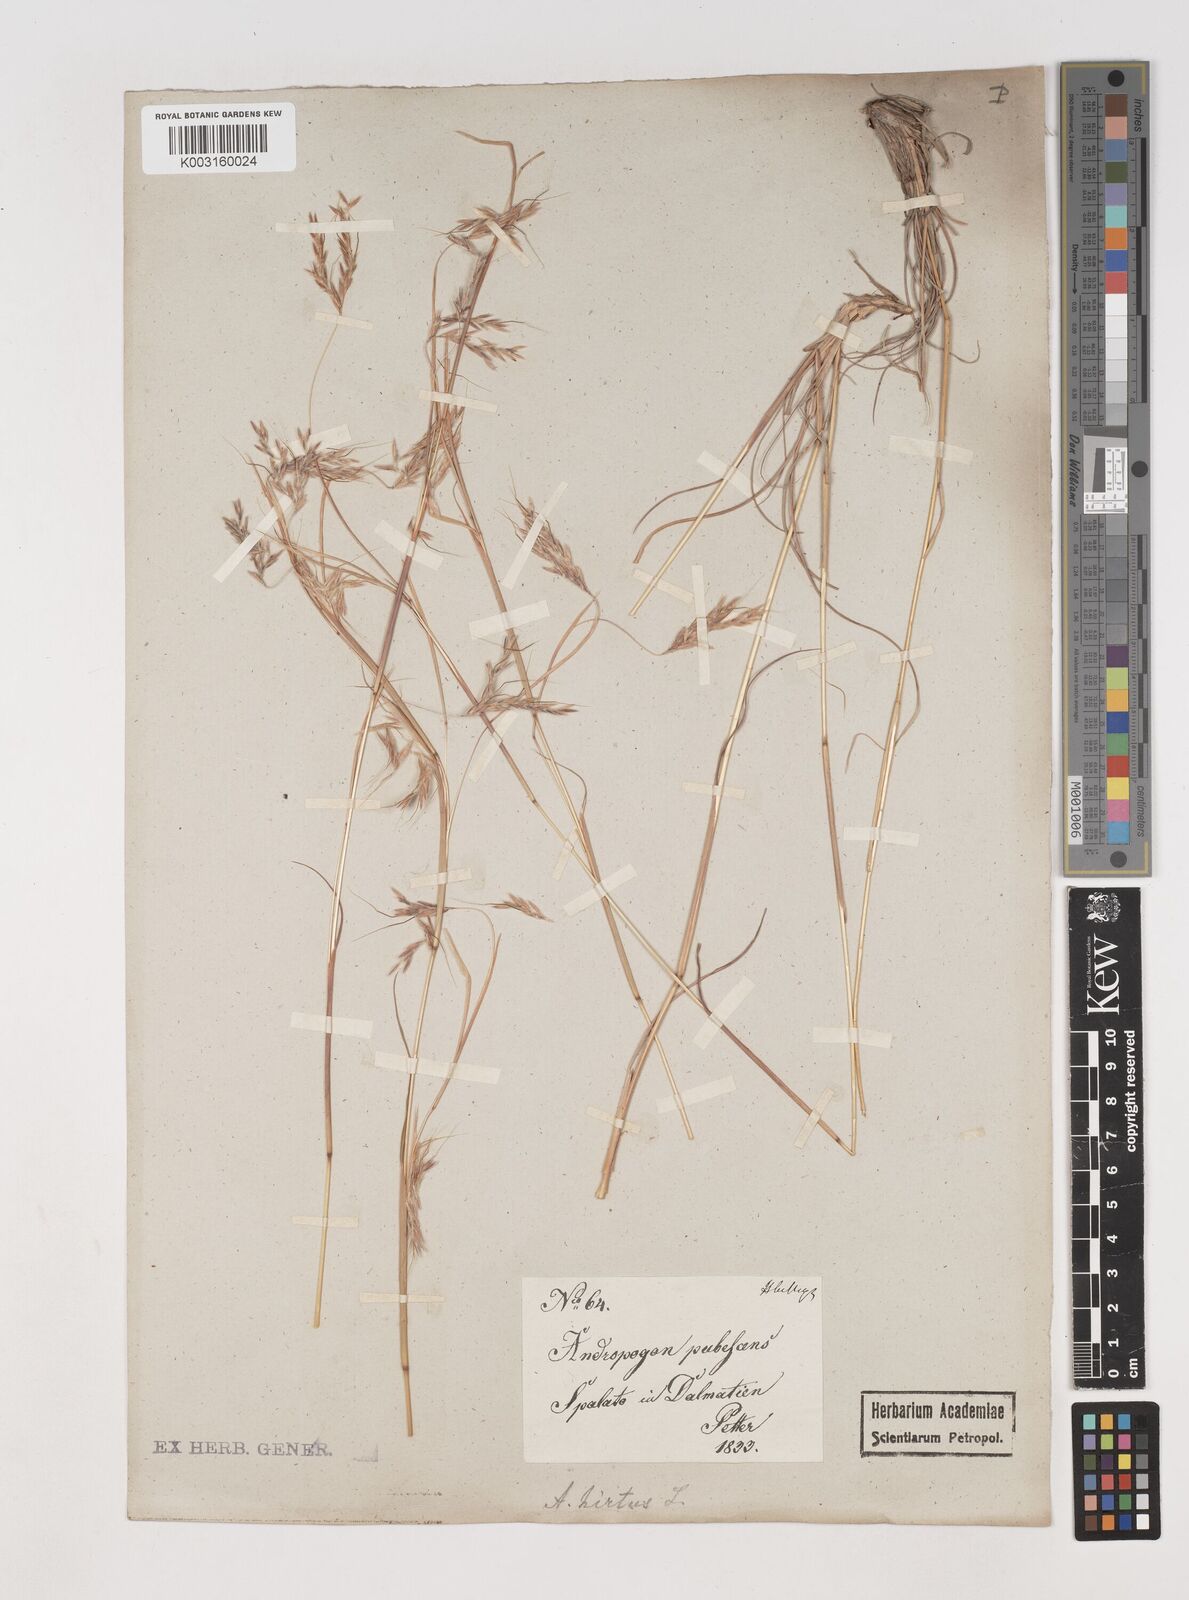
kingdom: Plantae
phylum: Tracheophyta
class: Liliopsida
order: Poales
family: Poaceae
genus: Hyparrhenia
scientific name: Hyparrhenia hirta
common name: Thatching grass
